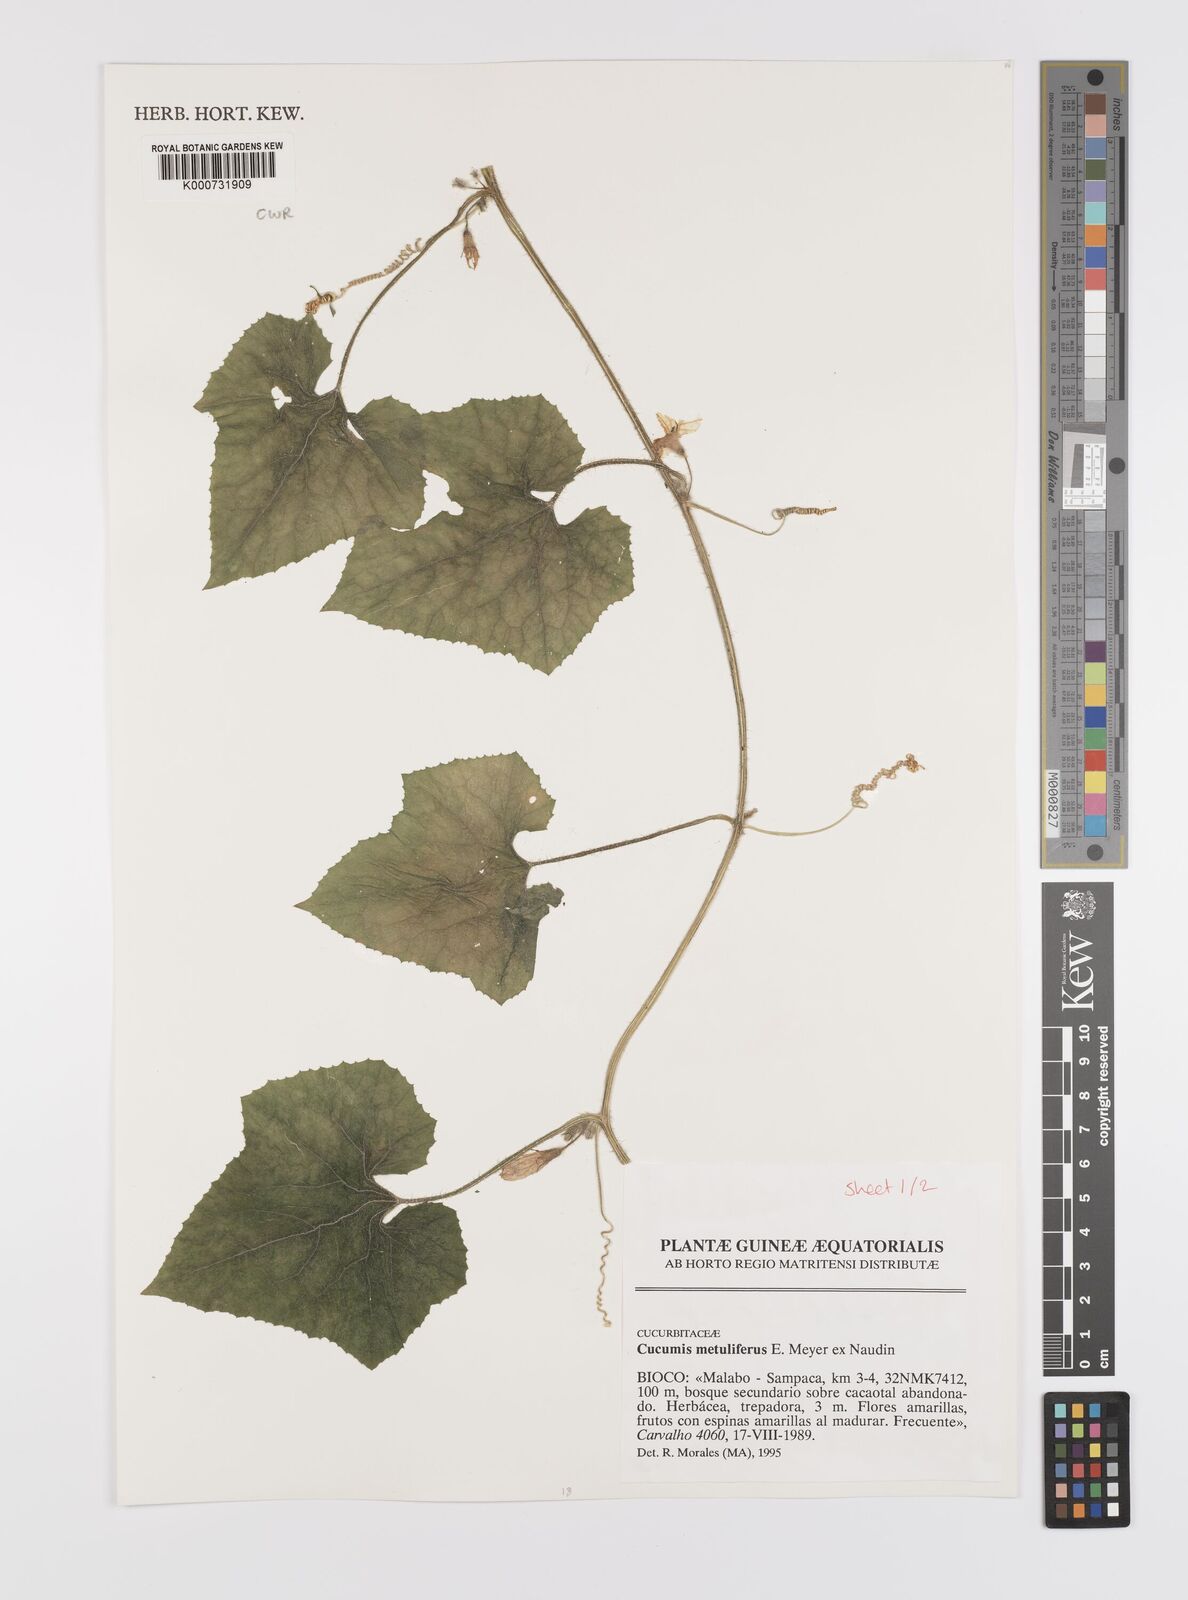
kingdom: Plantae
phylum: Tracheophyta
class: Magnoliopsida
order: Cucurbitales
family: Cucurbitaceae
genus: Cucumis
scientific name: Cucumis
